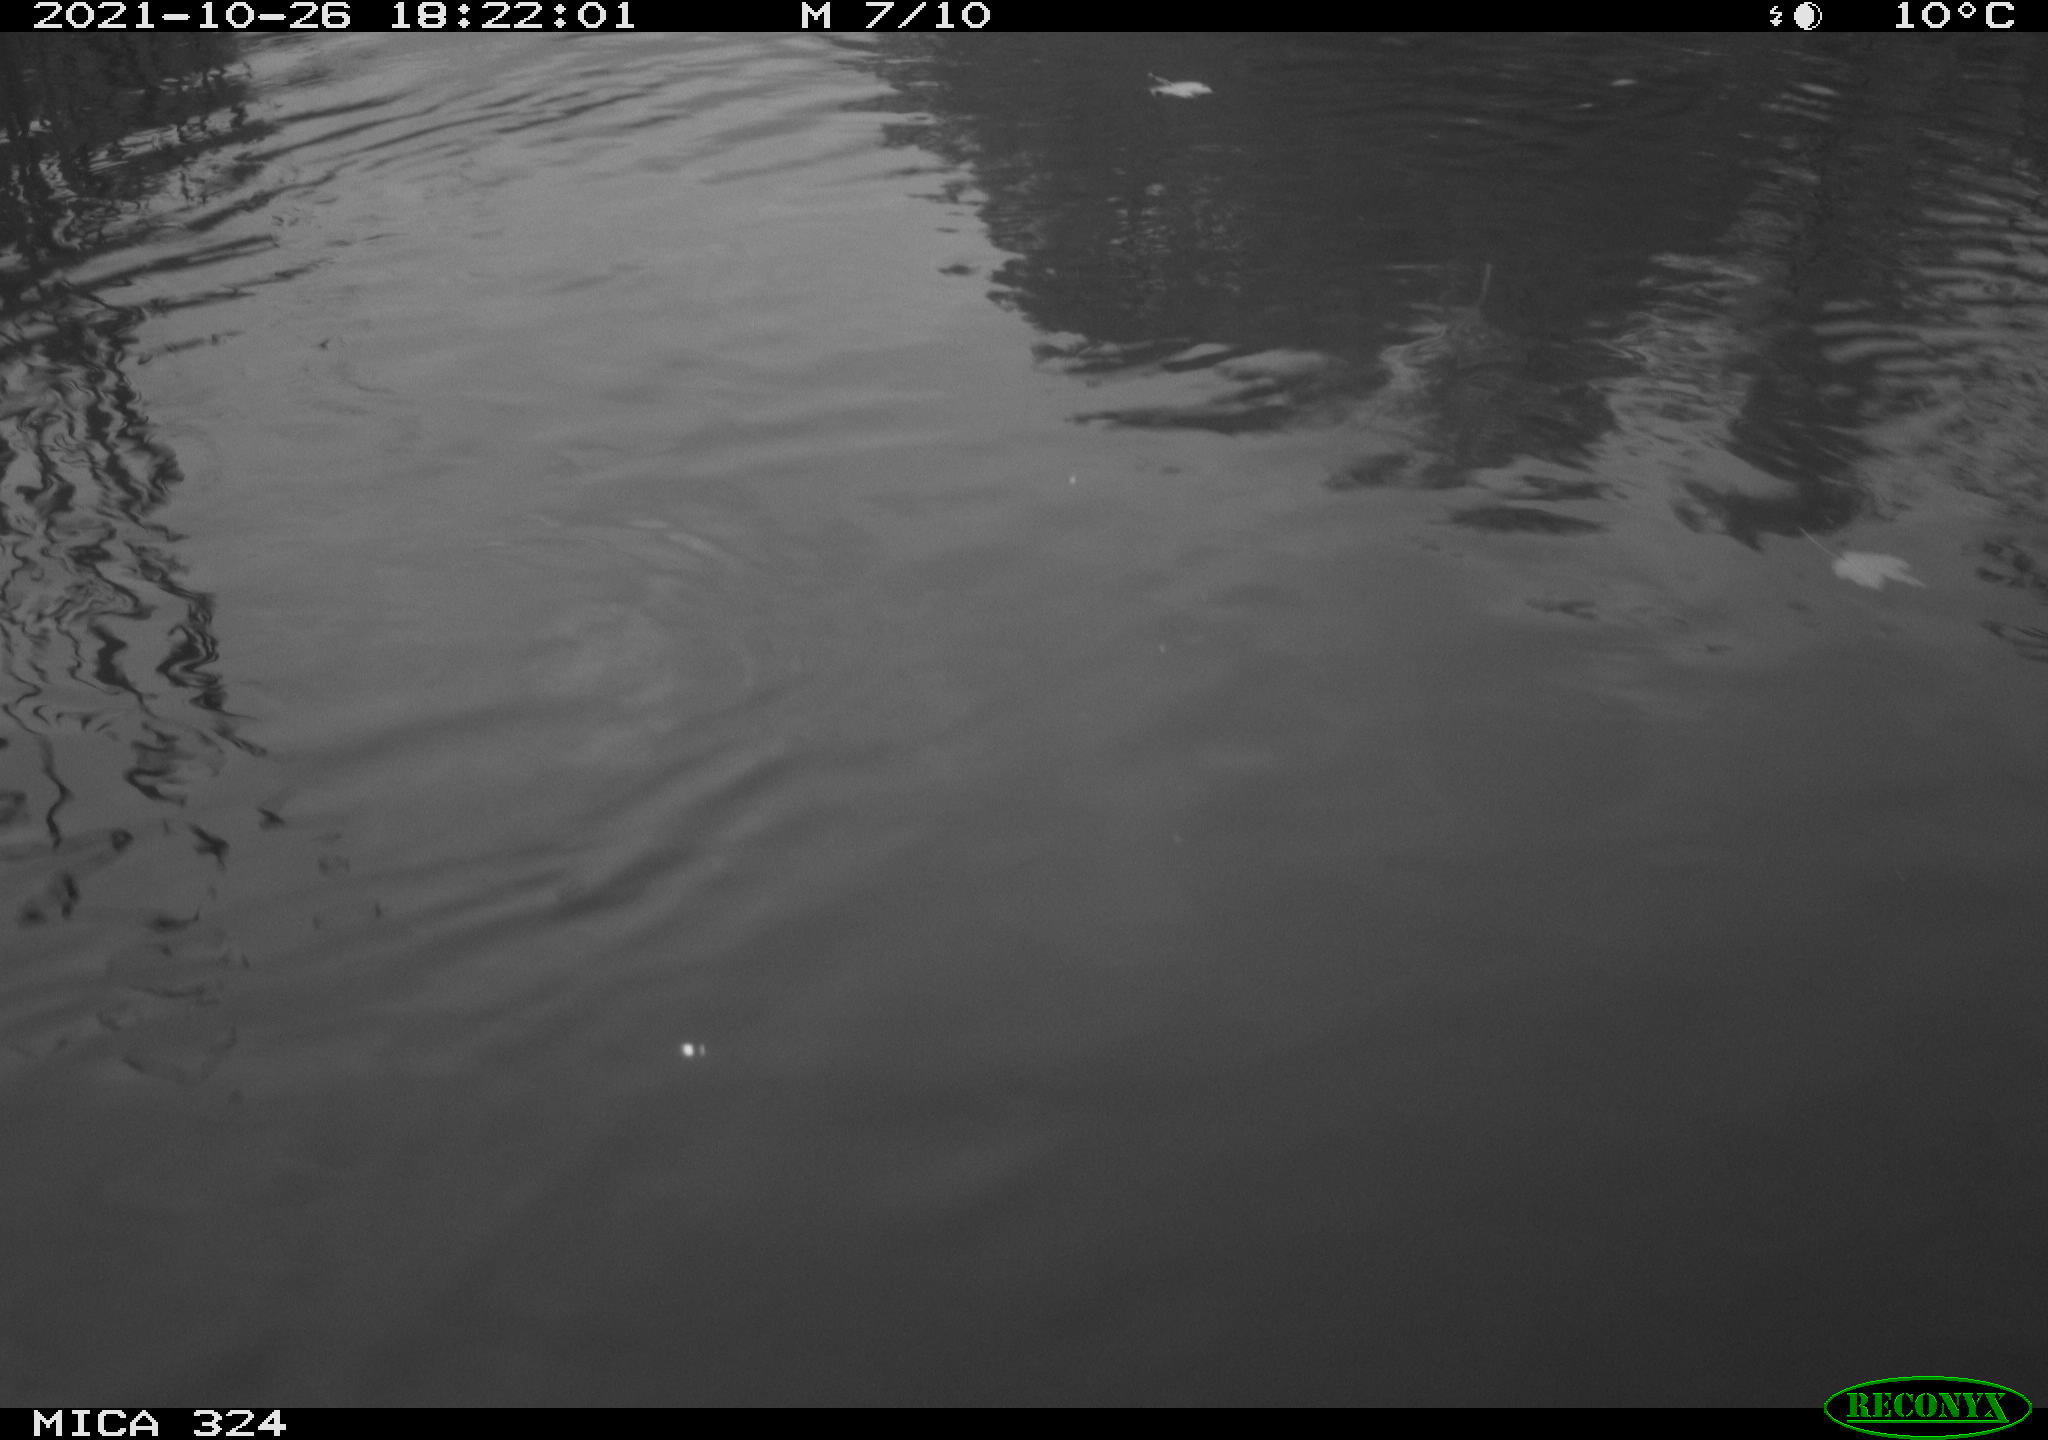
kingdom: Animalia
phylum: Chordata
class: Aves
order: Gruiformes
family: Rallidae
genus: Gallinula
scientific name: Gallinula chloropus
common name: Common moorhen
